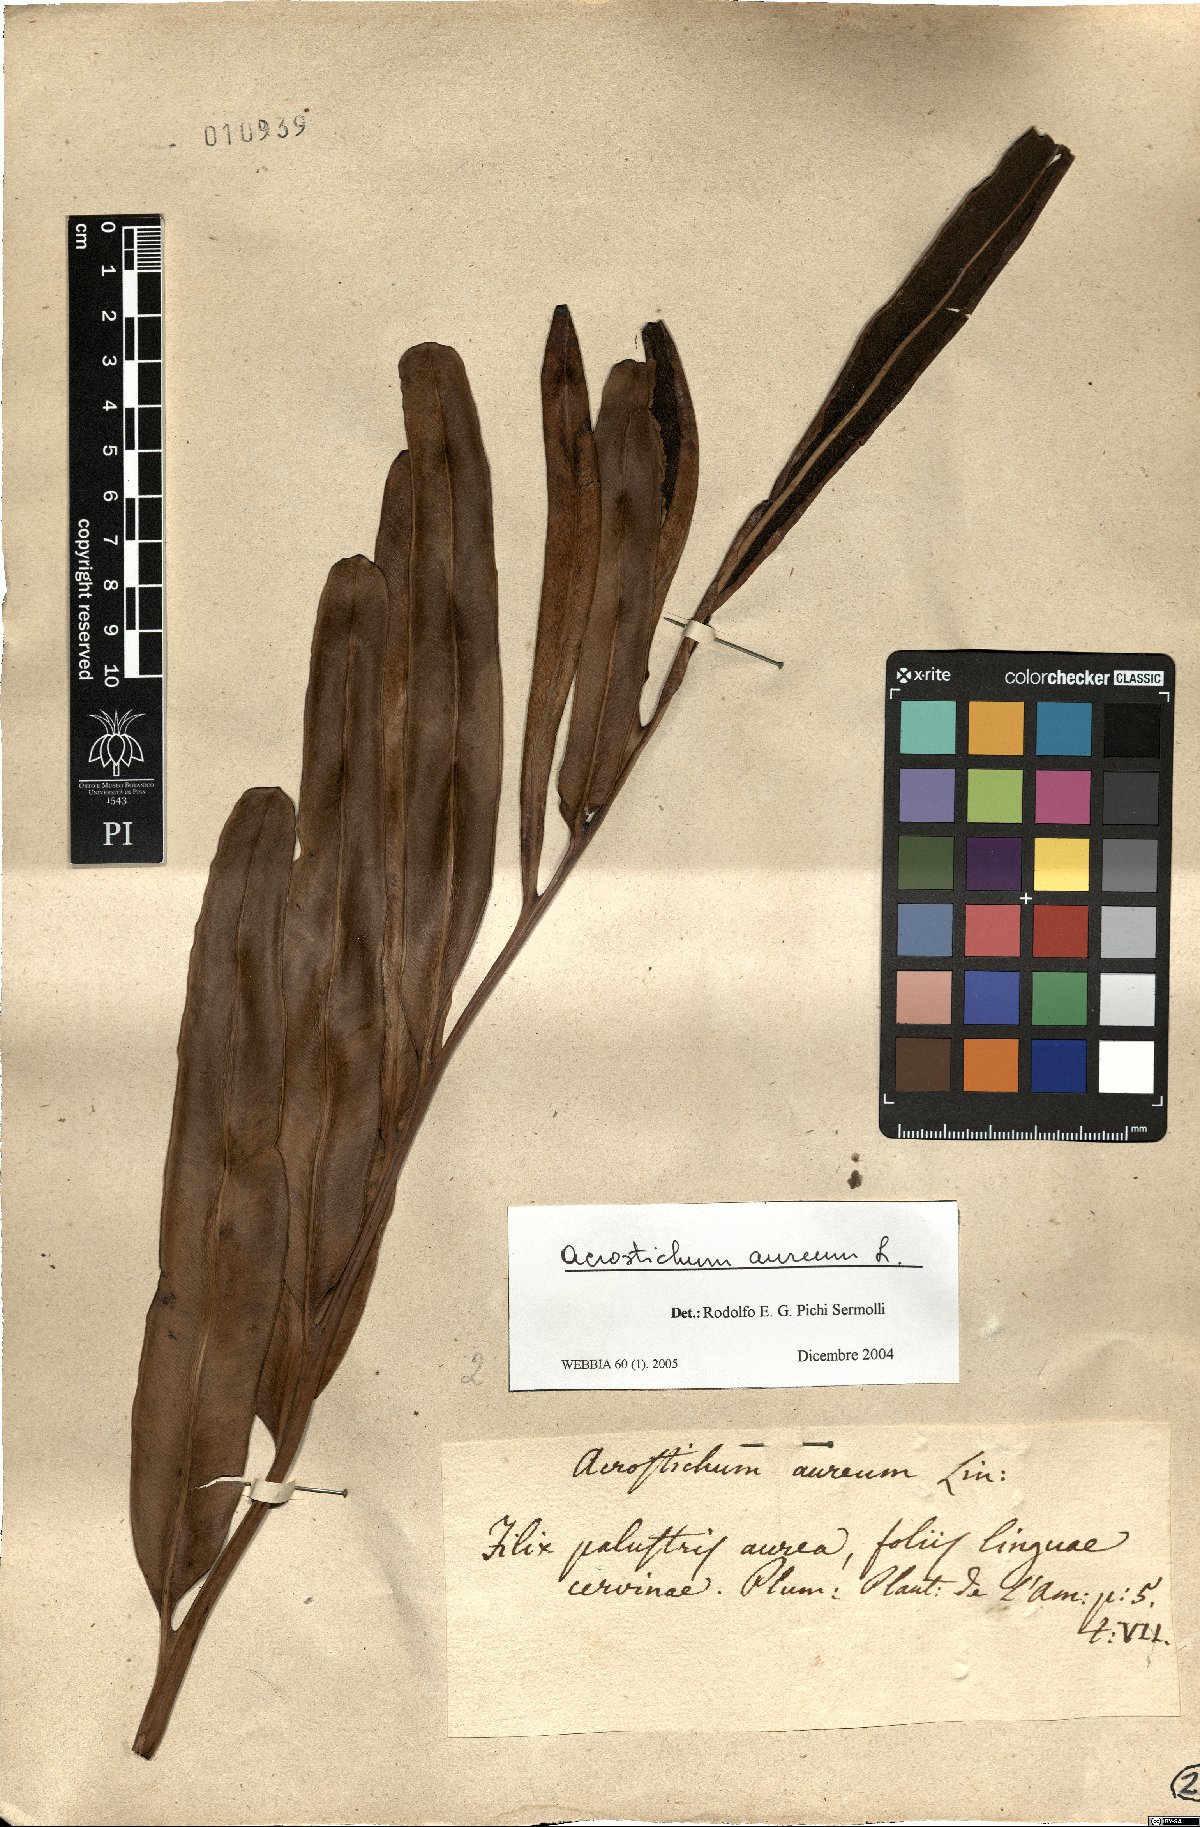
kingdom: Plantae
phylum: Tracheophyta
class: Polypodiopsida
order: Polypodiales
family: Pteridaceae
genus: Acrostichum
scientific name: Acrostichum aureum
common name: Leather fern
